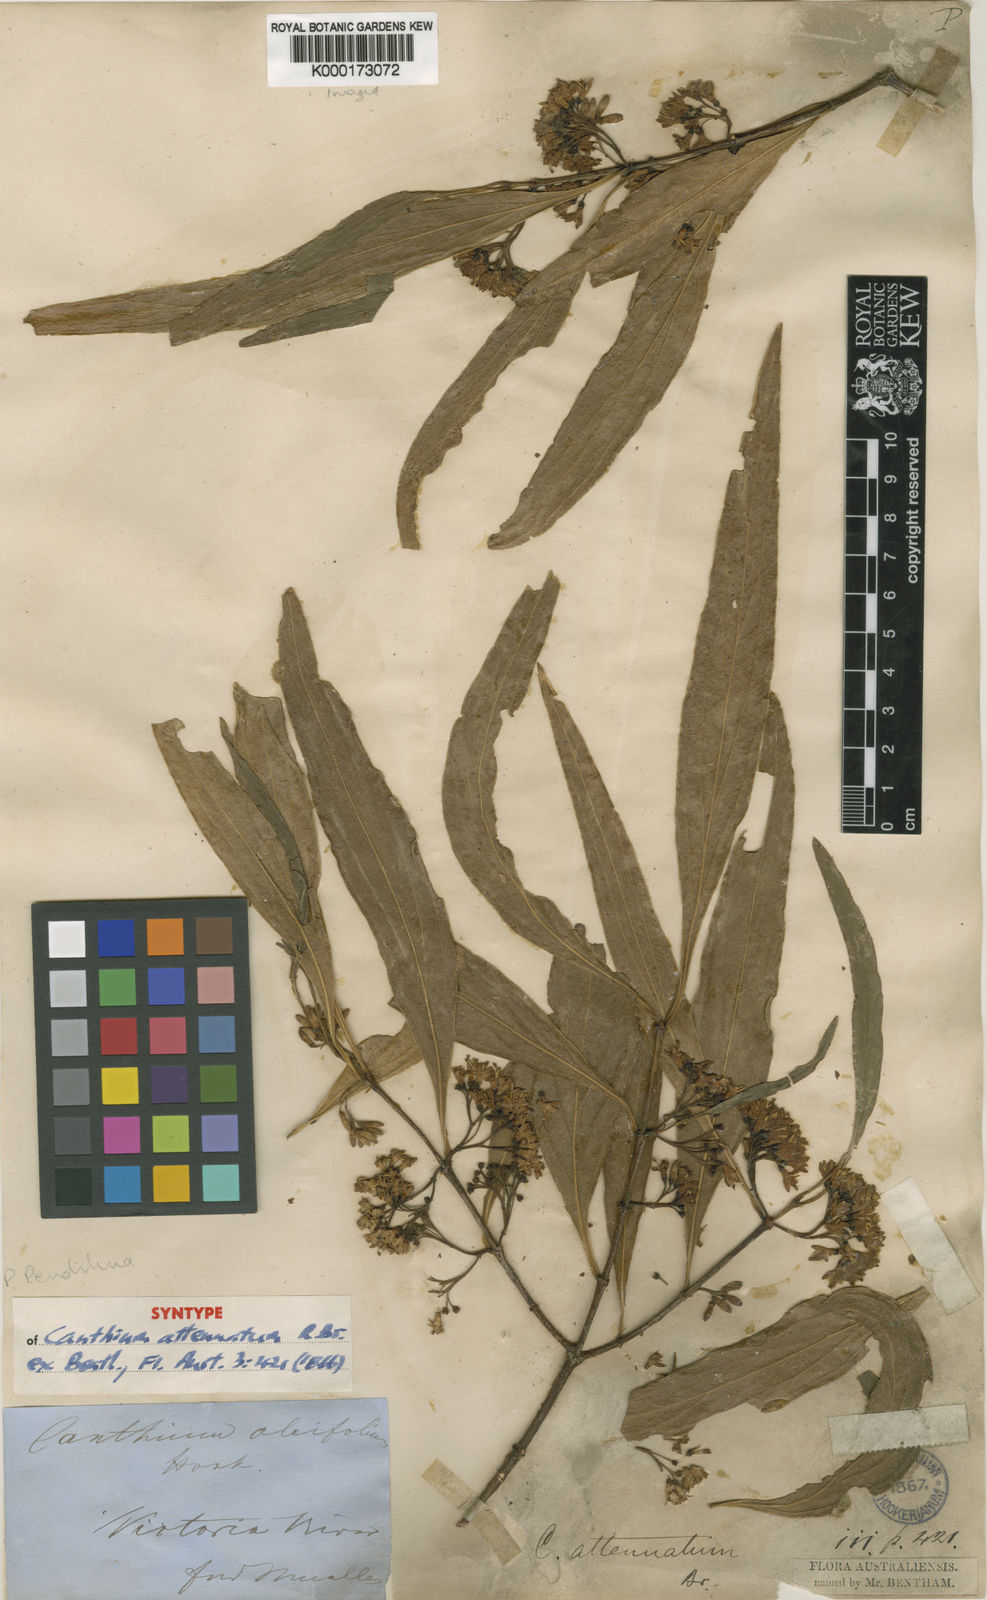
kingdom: Plantae
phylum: Tracheophyta
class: Magnoliopsida
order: Gentianales
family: Rubiaceae
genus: Psydrax
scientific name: Psydrax pendulinus
